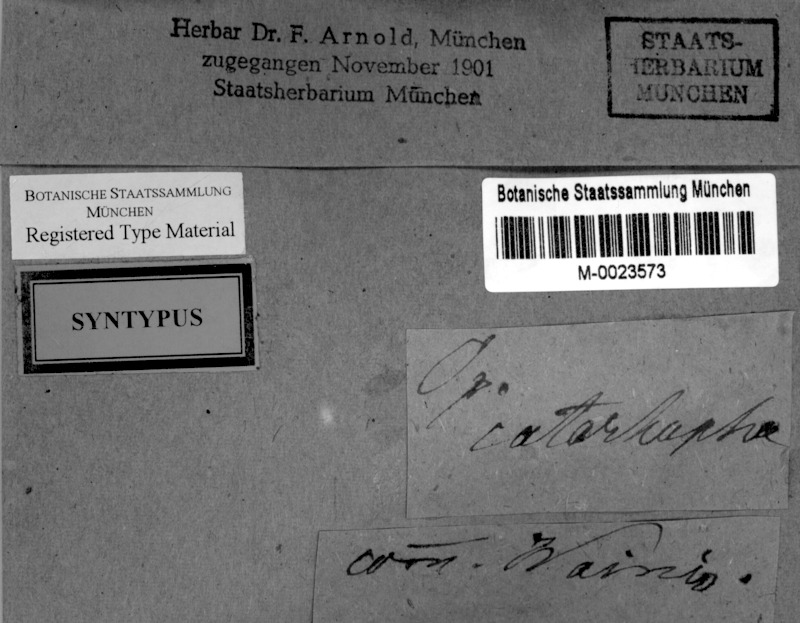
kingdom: Fungi
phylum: Ascomycota
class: Arthoniomycetes
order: Arthoniales
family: Lecanographaceae
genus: Lecanographa
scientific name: Lecanographa abscondita
